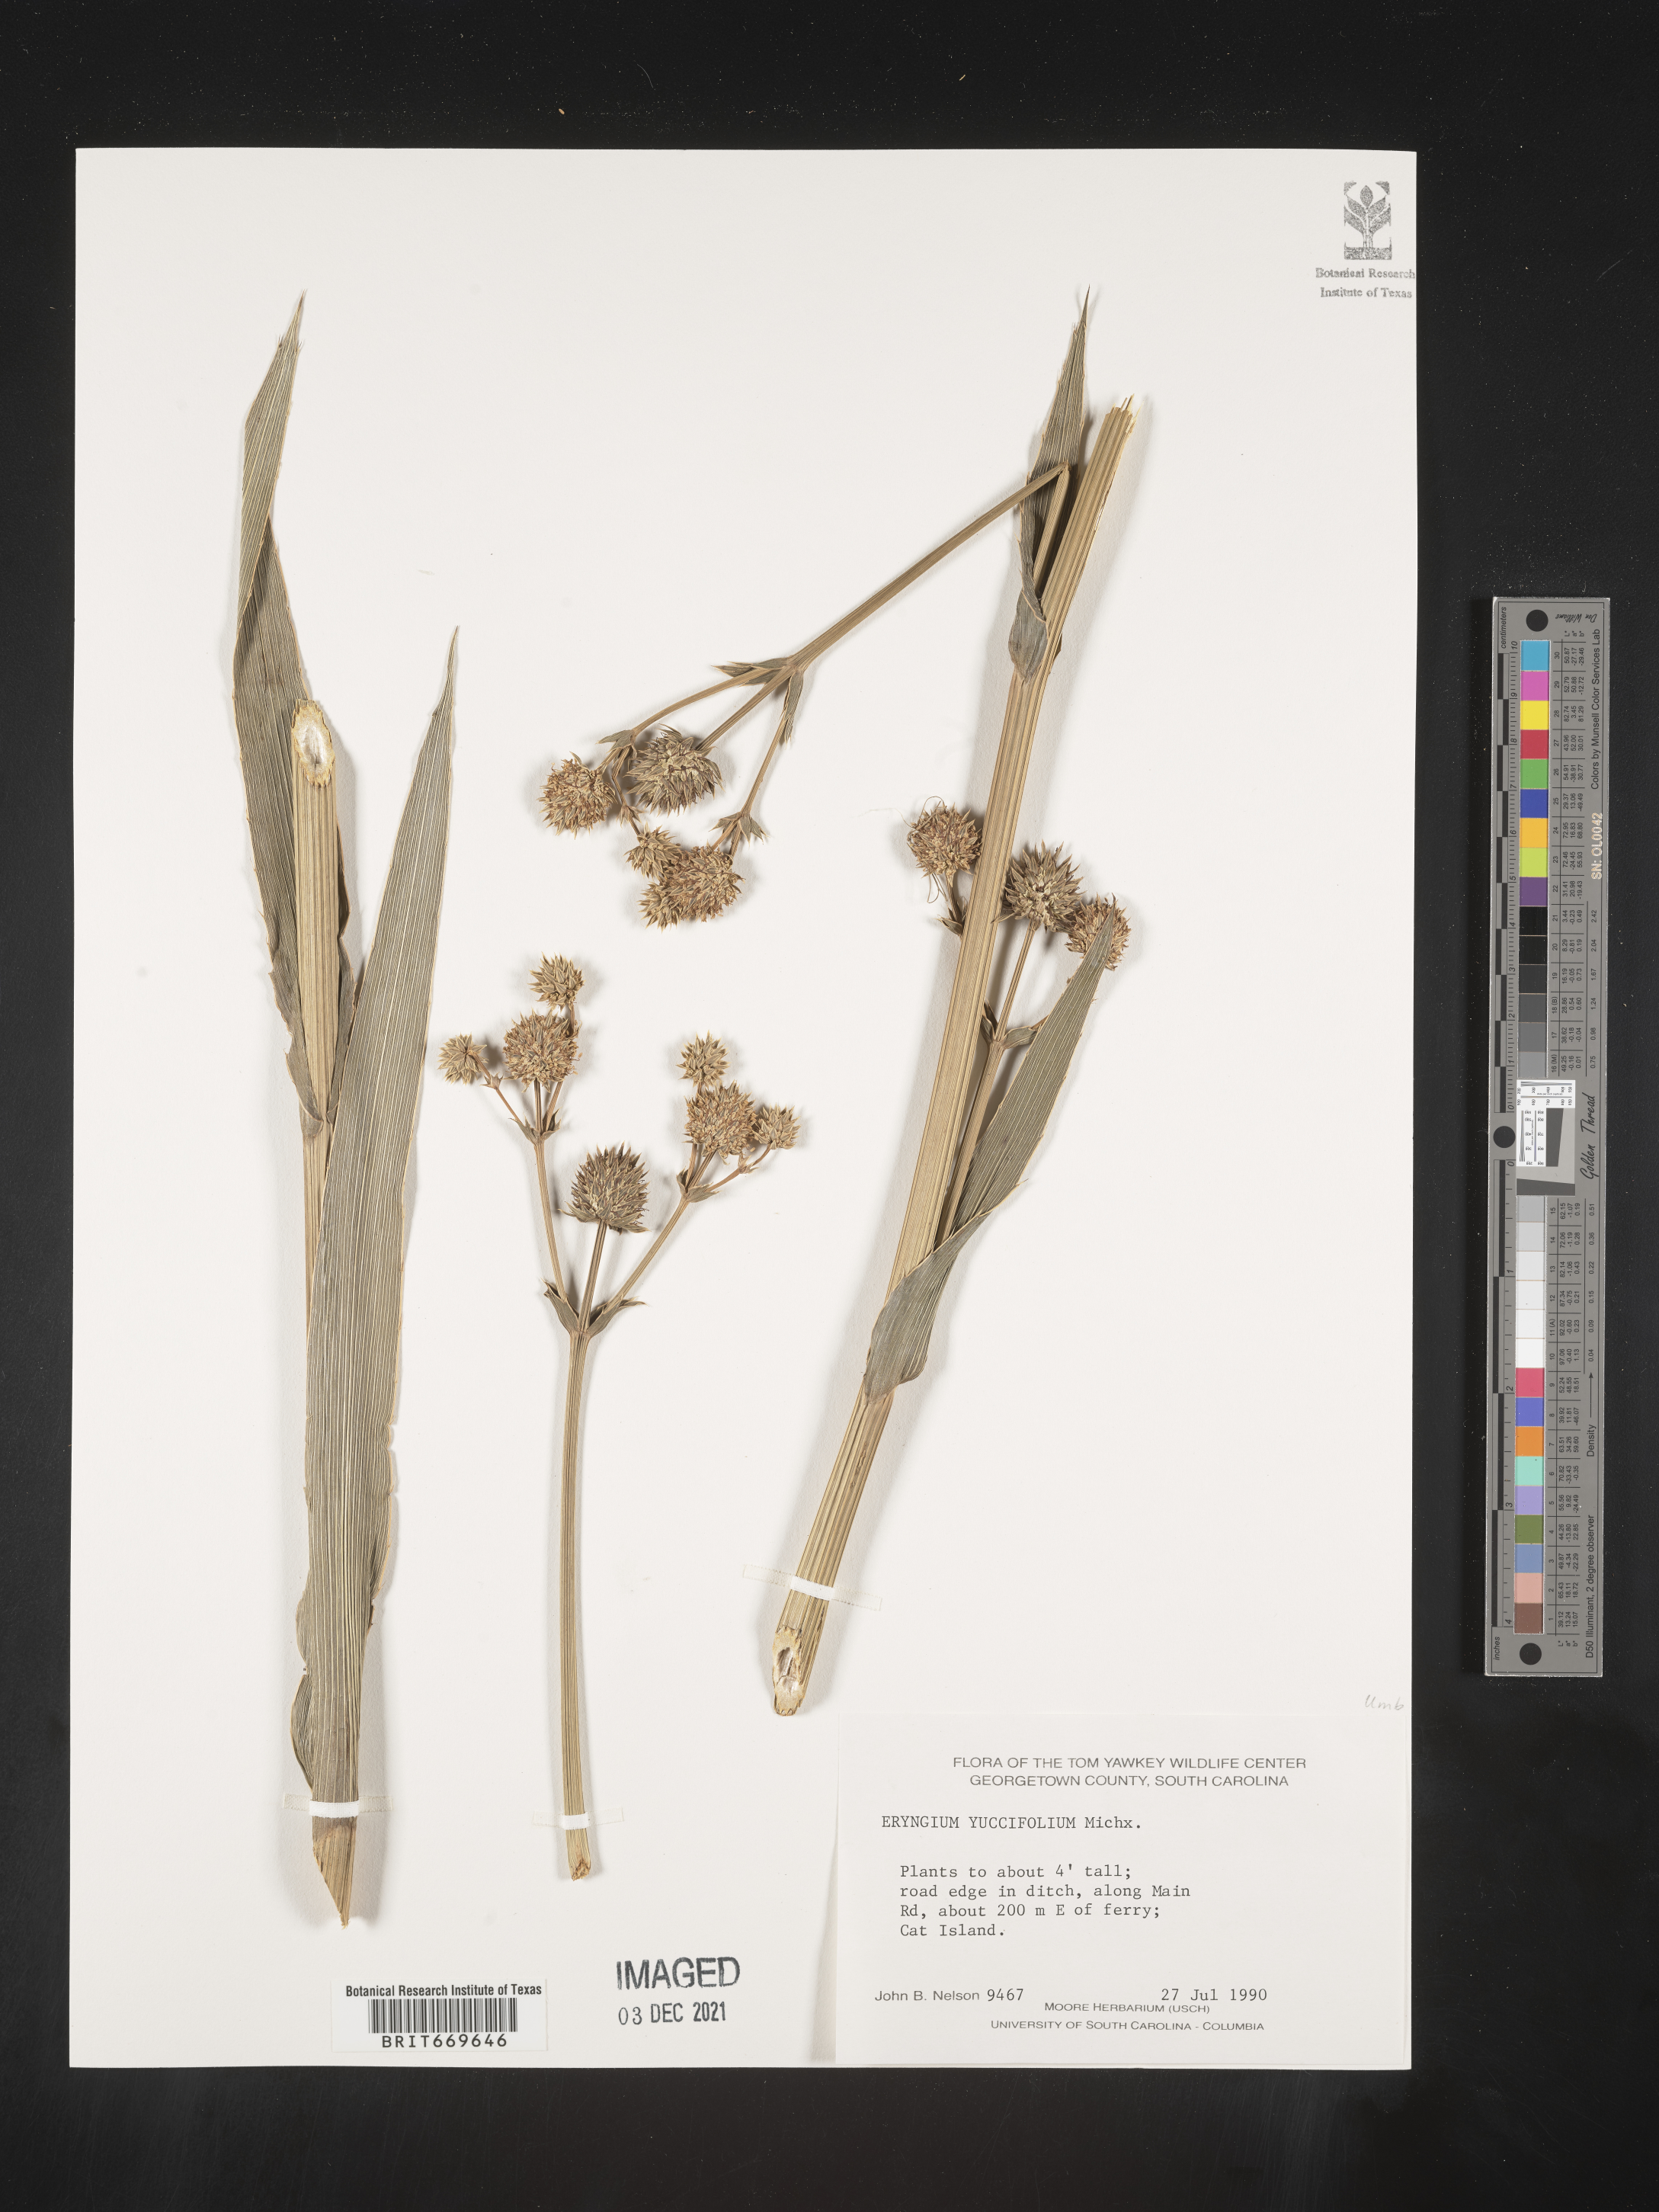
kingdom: Plantae
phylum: Tracheophyta
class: Magnoliopsida
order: Apiales
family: Apiaceae
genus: Eryngium
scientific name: Eryngium yuccifolium
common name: Button eryngo
